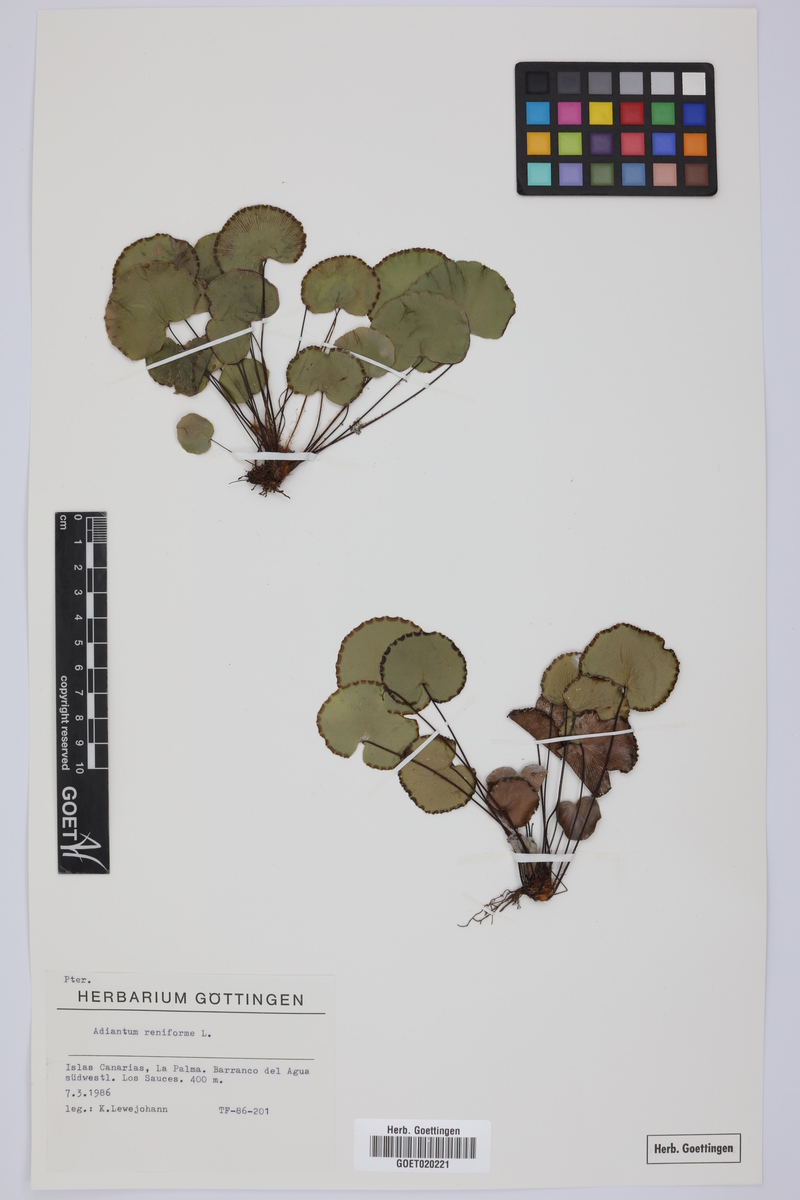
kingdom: Plantae
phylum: Tracheophyta
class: Polypodiopsida
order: Polypodiales
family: Pteridaceae
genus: Adiantum
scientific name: Adiantum reniforme
